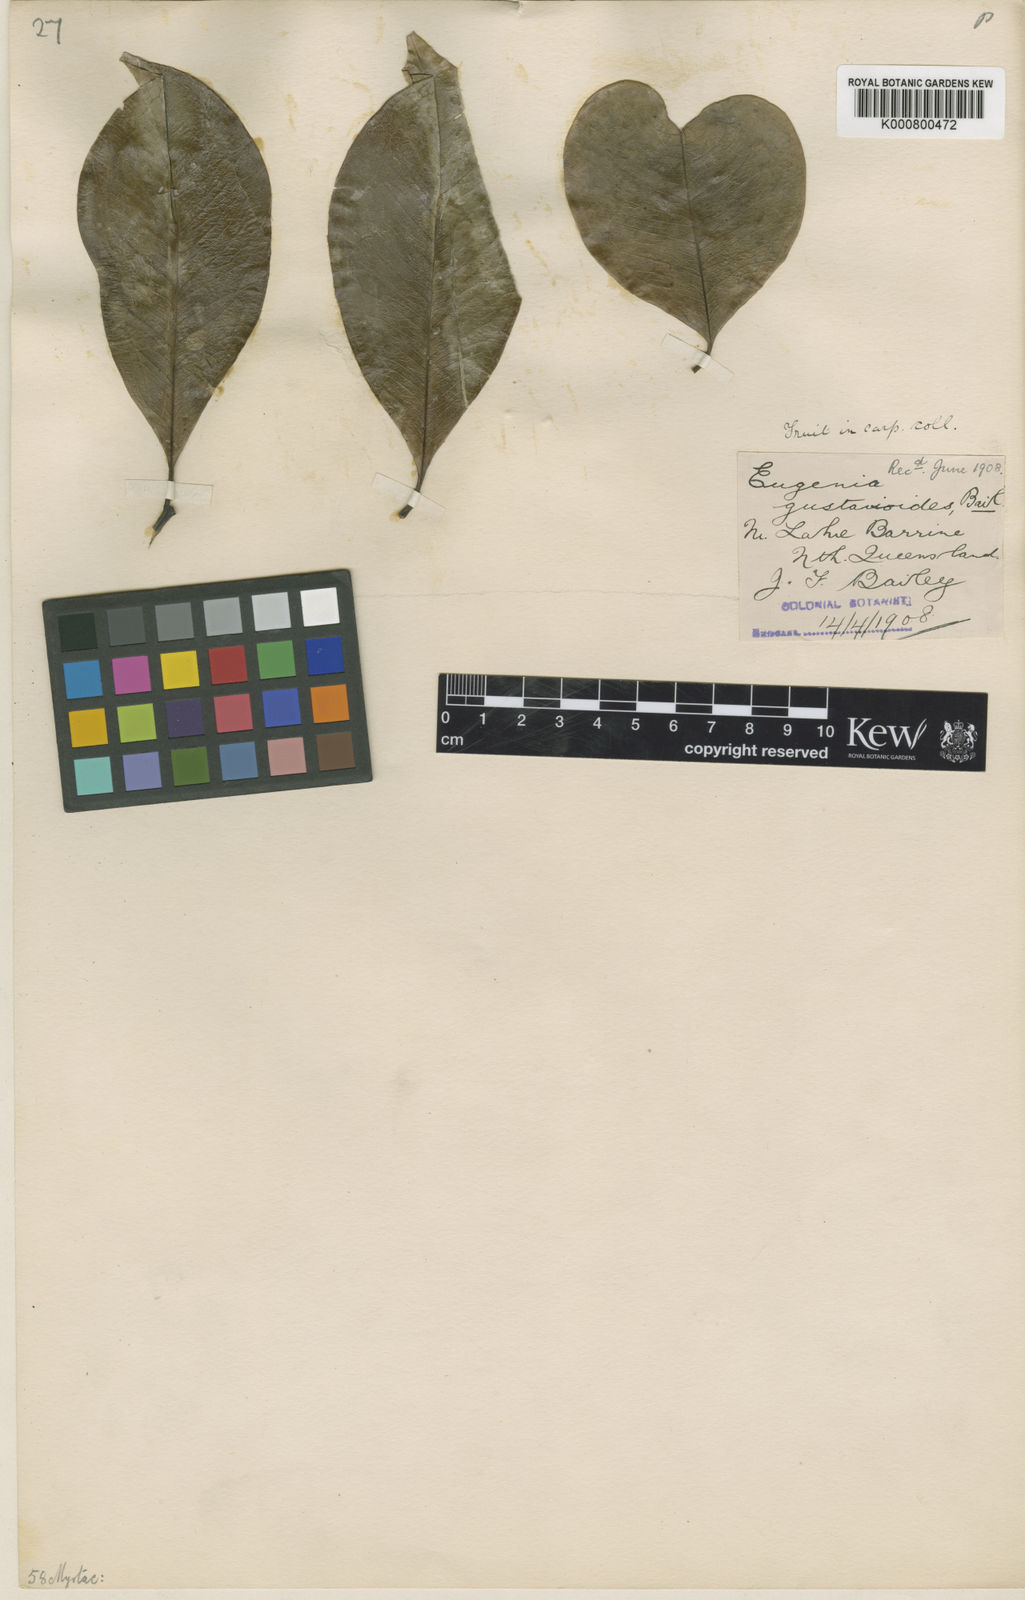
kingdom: Plantae
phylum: Tracheophyta
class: Magnoliopsida
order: Myrtales
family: Myrtaceae
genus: Syzygium
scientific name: Syzygium gustavioides
